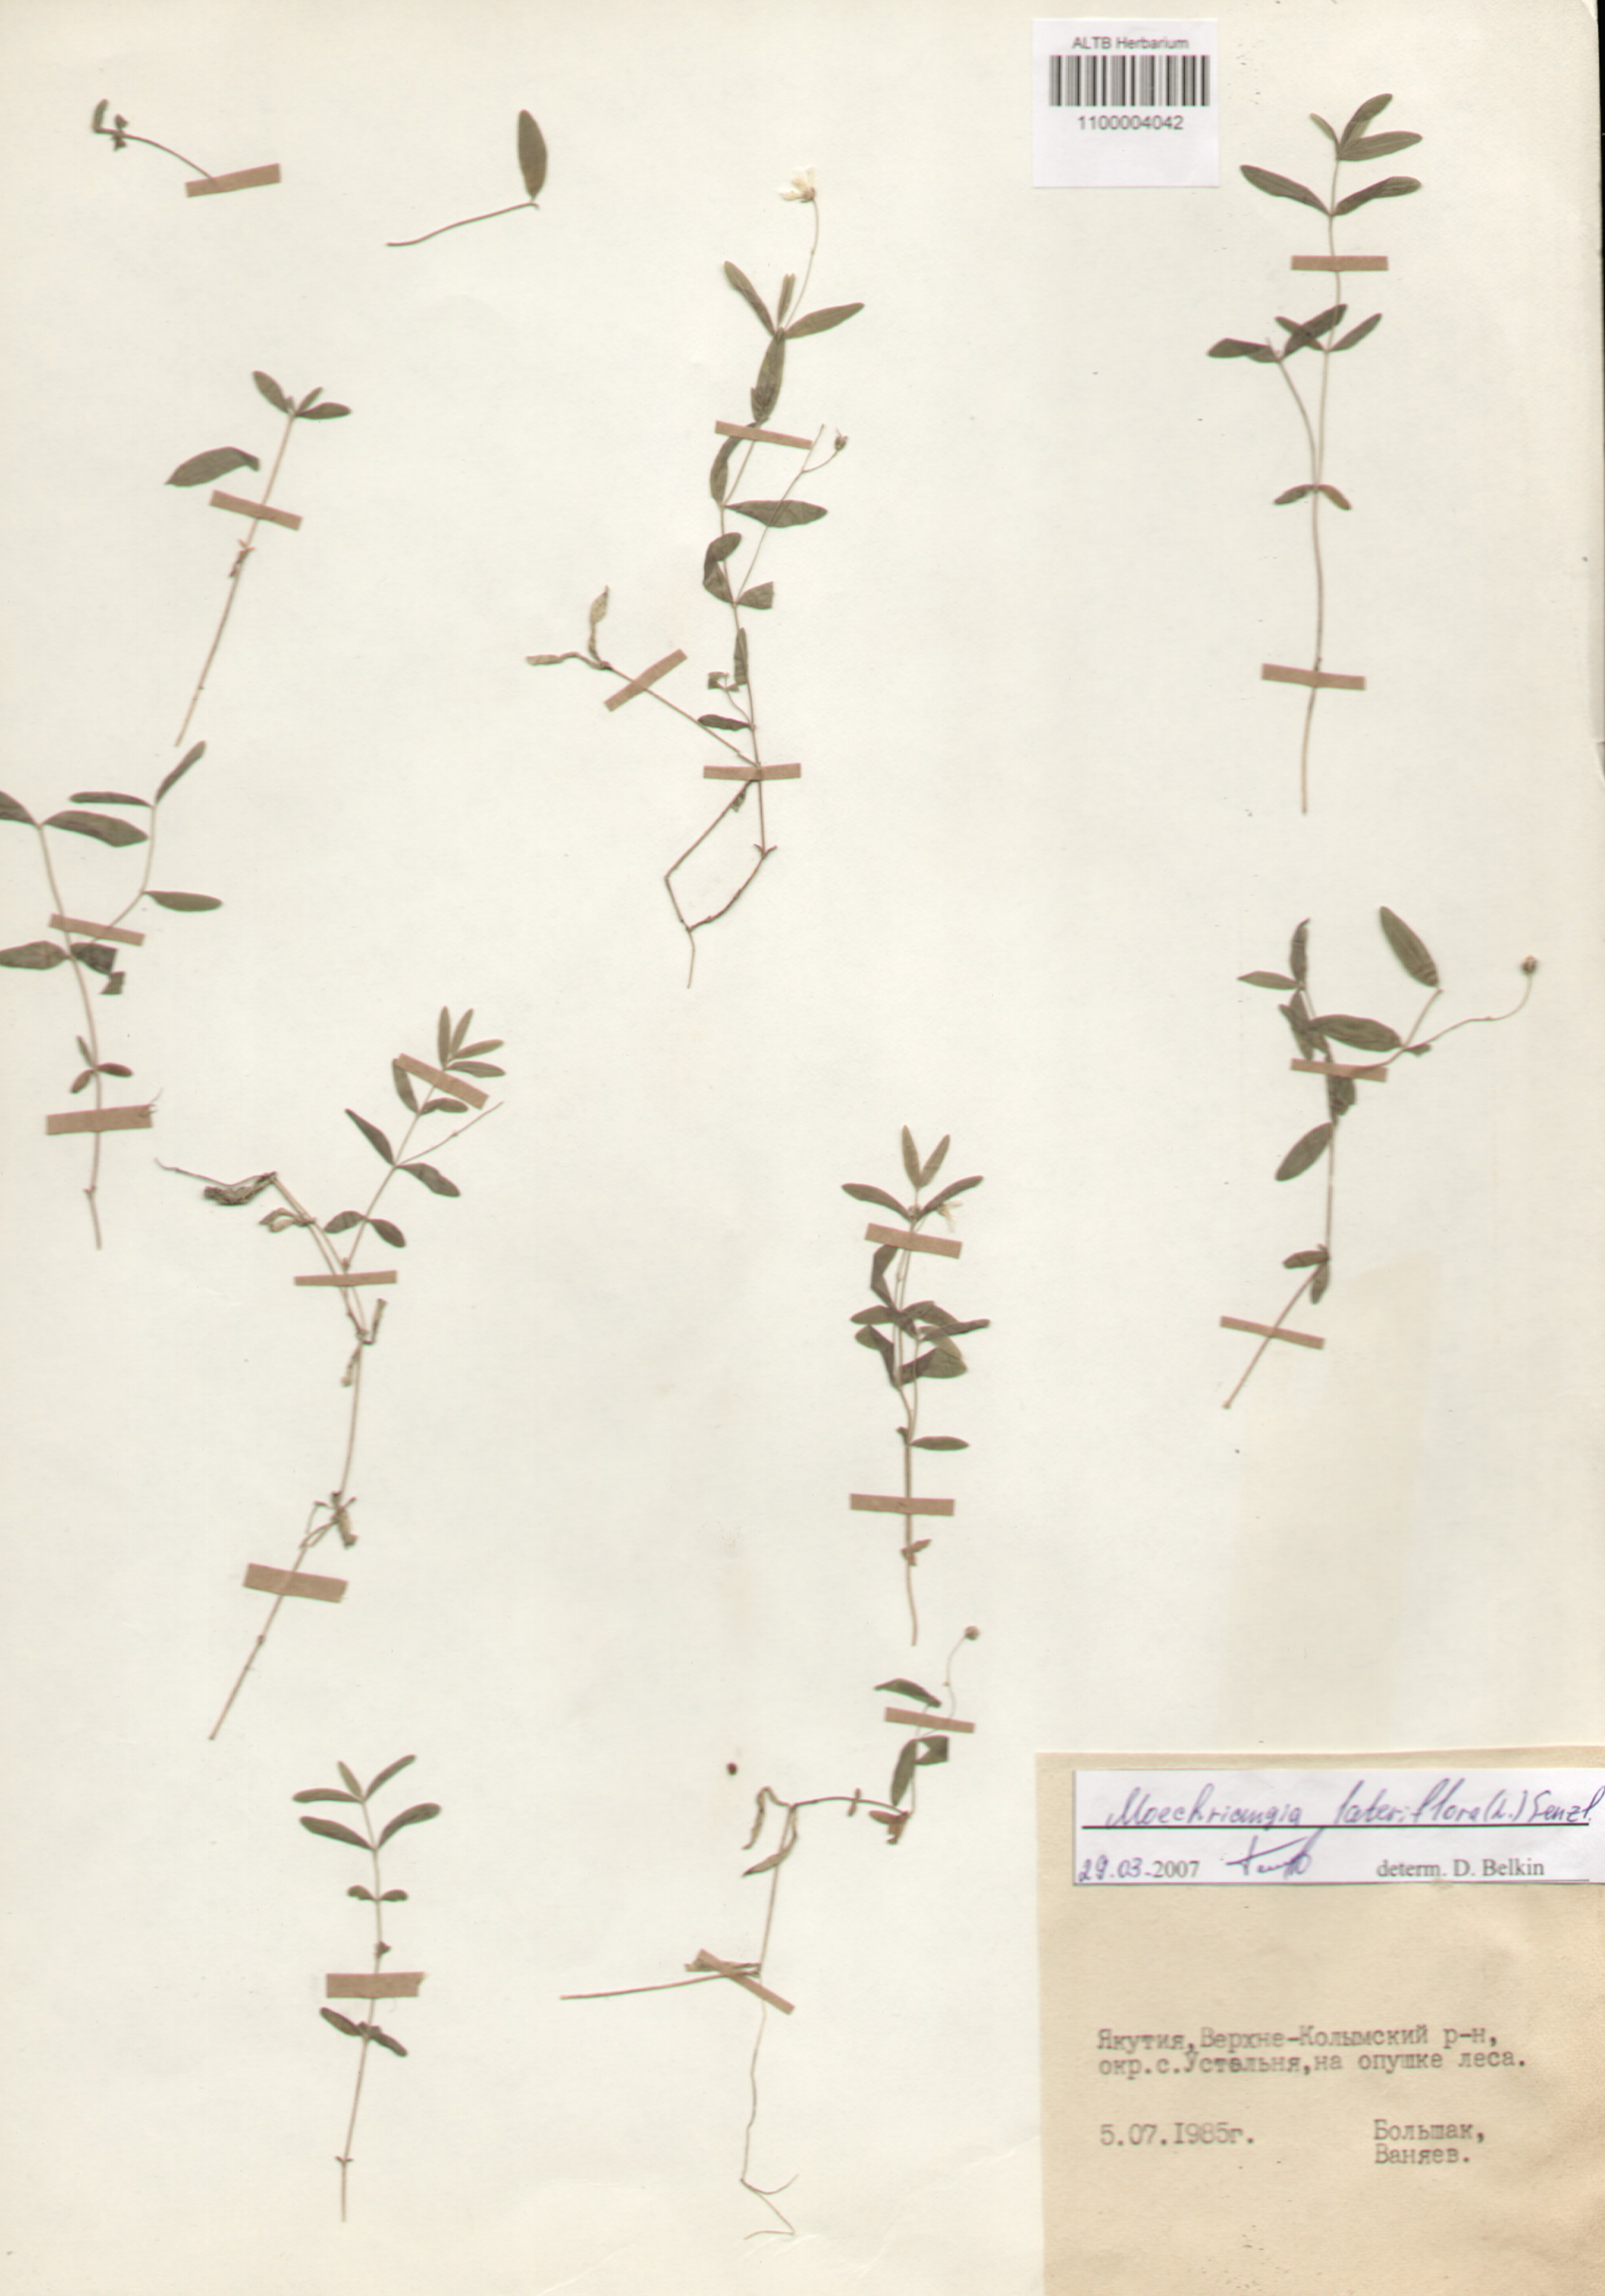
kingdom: Plantae
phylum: Tracheophyta
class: Magnoliopsida
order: Caryophyllales
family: Caryophyllaceae
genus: Moehringia
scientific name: Moehringia lateriflora
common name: Blunt-leaved sandwort
